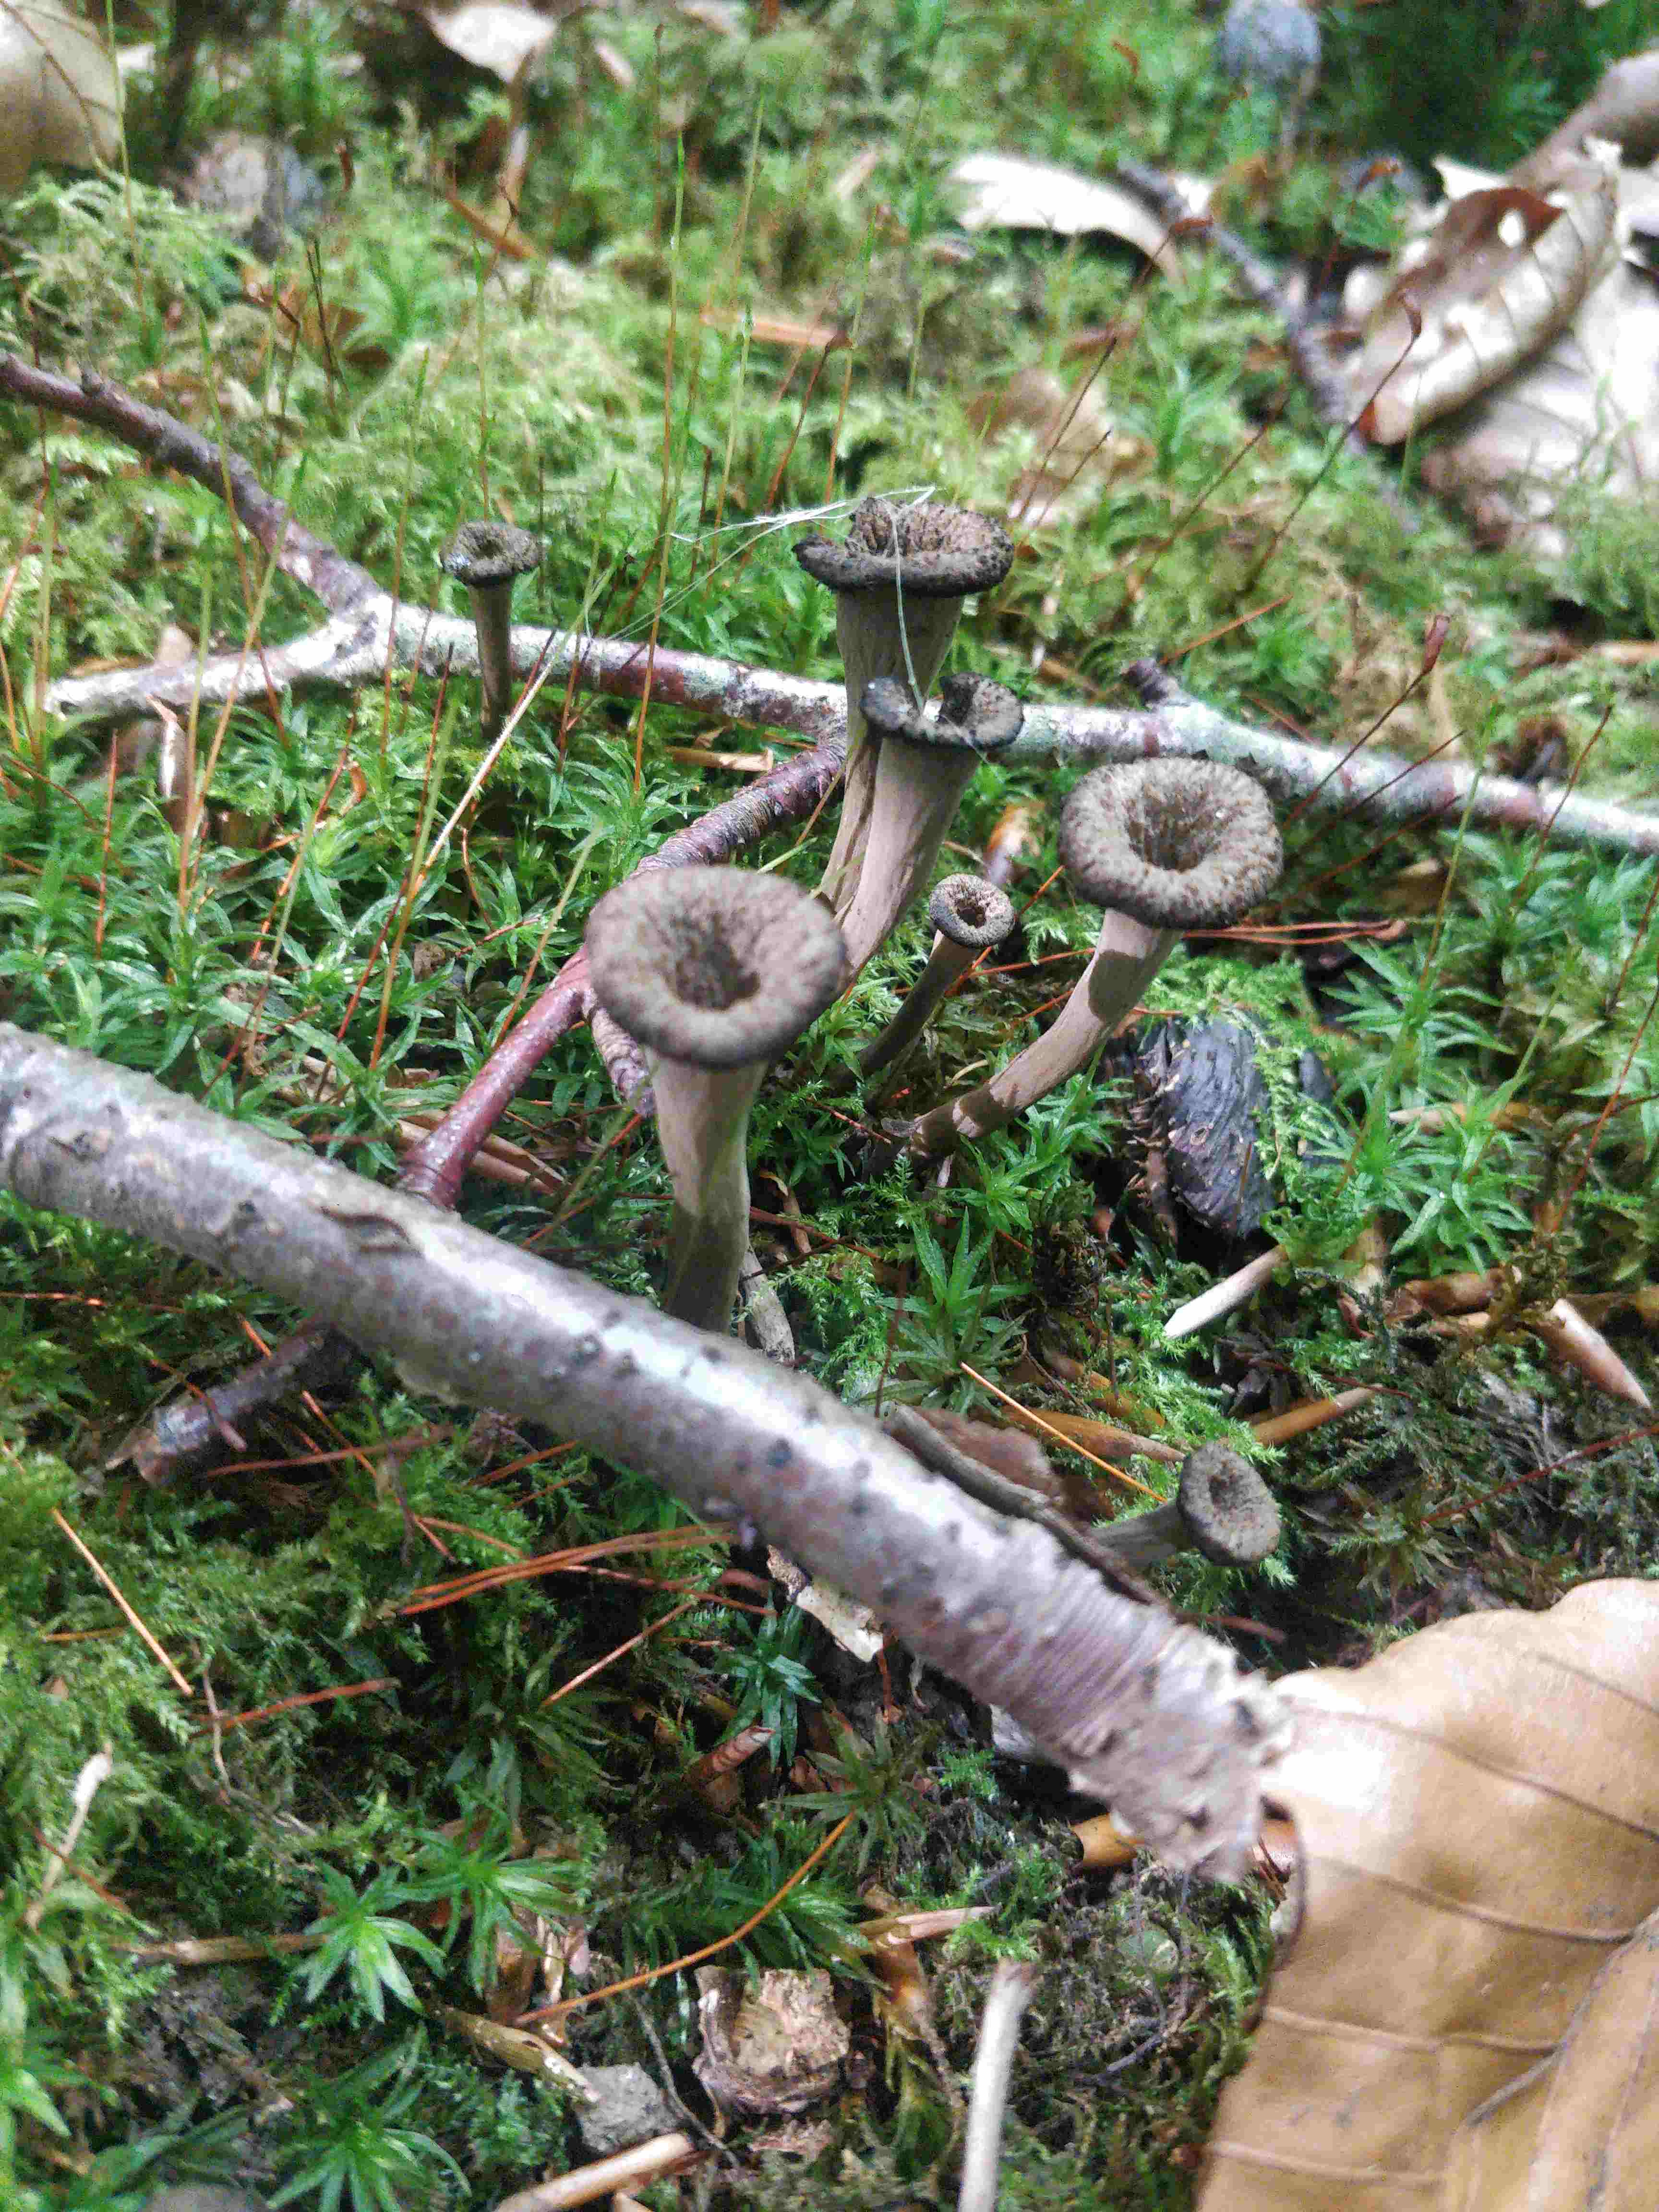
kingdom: Fungi
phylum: Basidiomycota
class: Agaricomycetes
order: Cantharellales
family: Hydnaceae
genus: Craterellus
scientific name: Craterellus cornucopioides
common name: trompetsvamp
